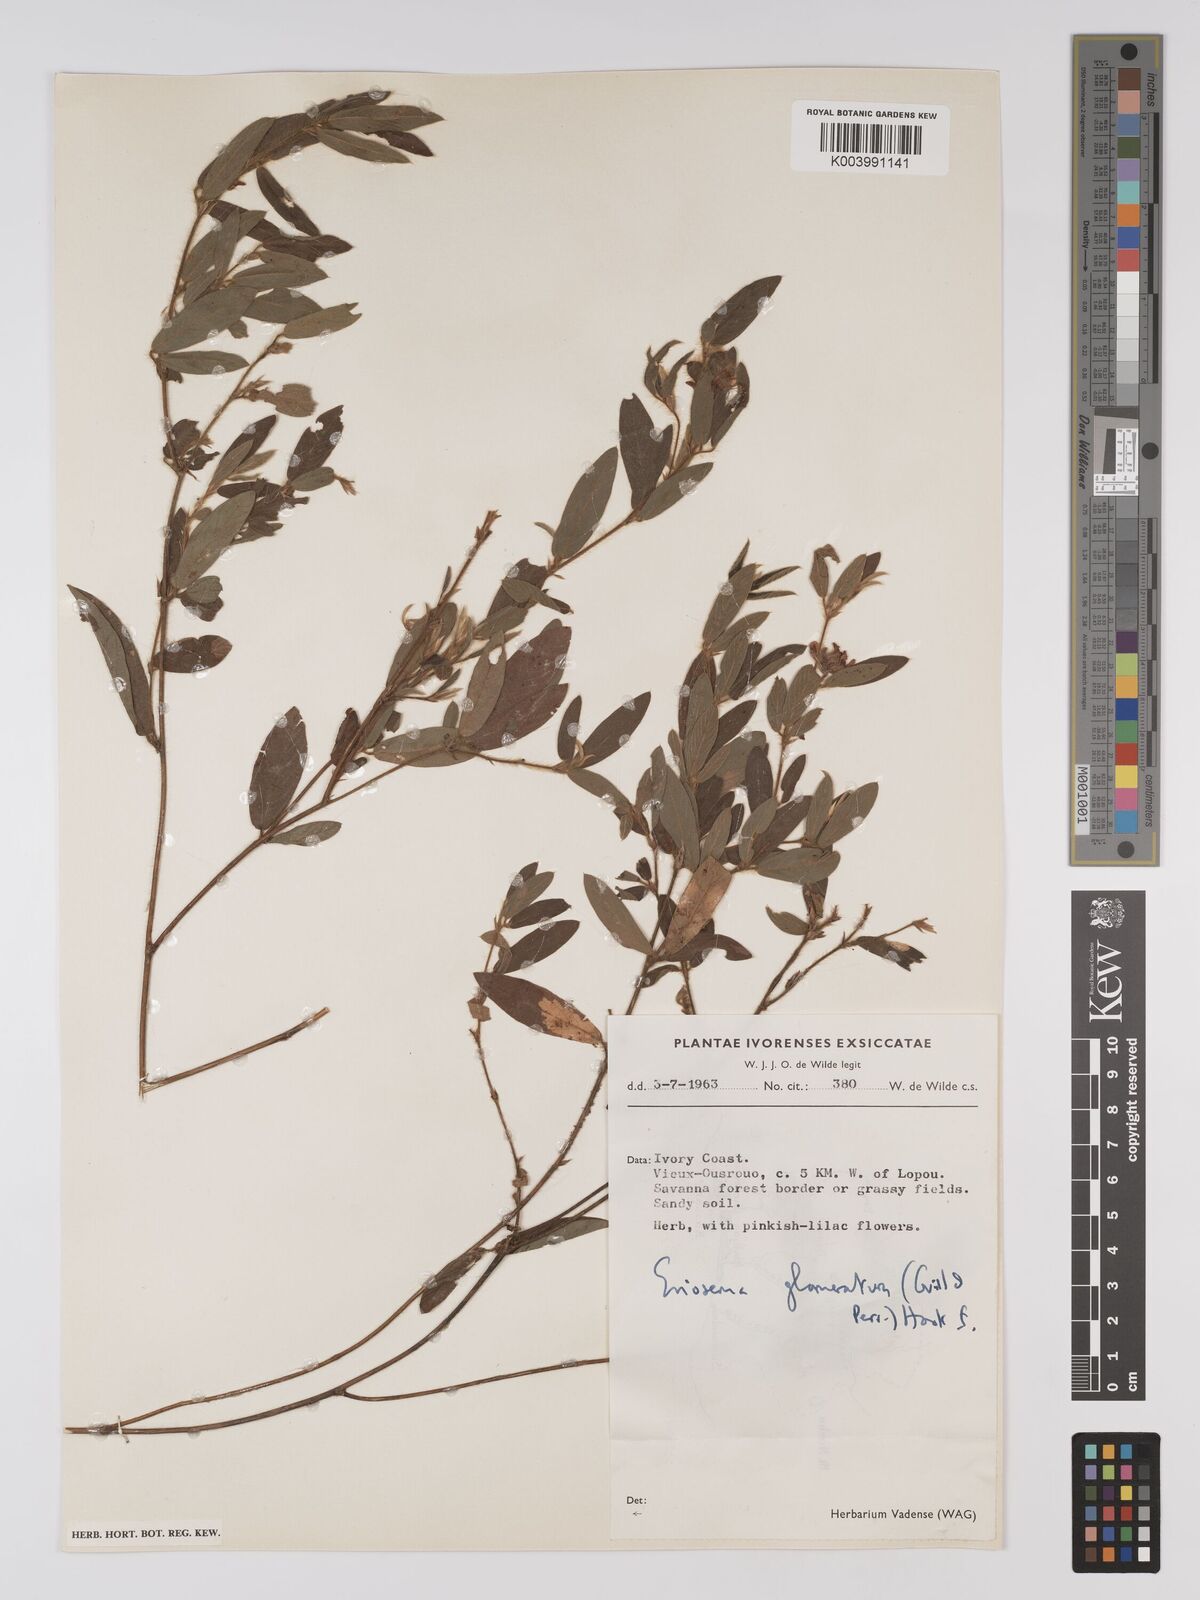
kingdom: Plantae
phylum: Tracheophyta
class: Magnoliopsida
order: Fabales
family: Fabaceae
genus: Eriosema
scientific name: Eriosema glomeratum
